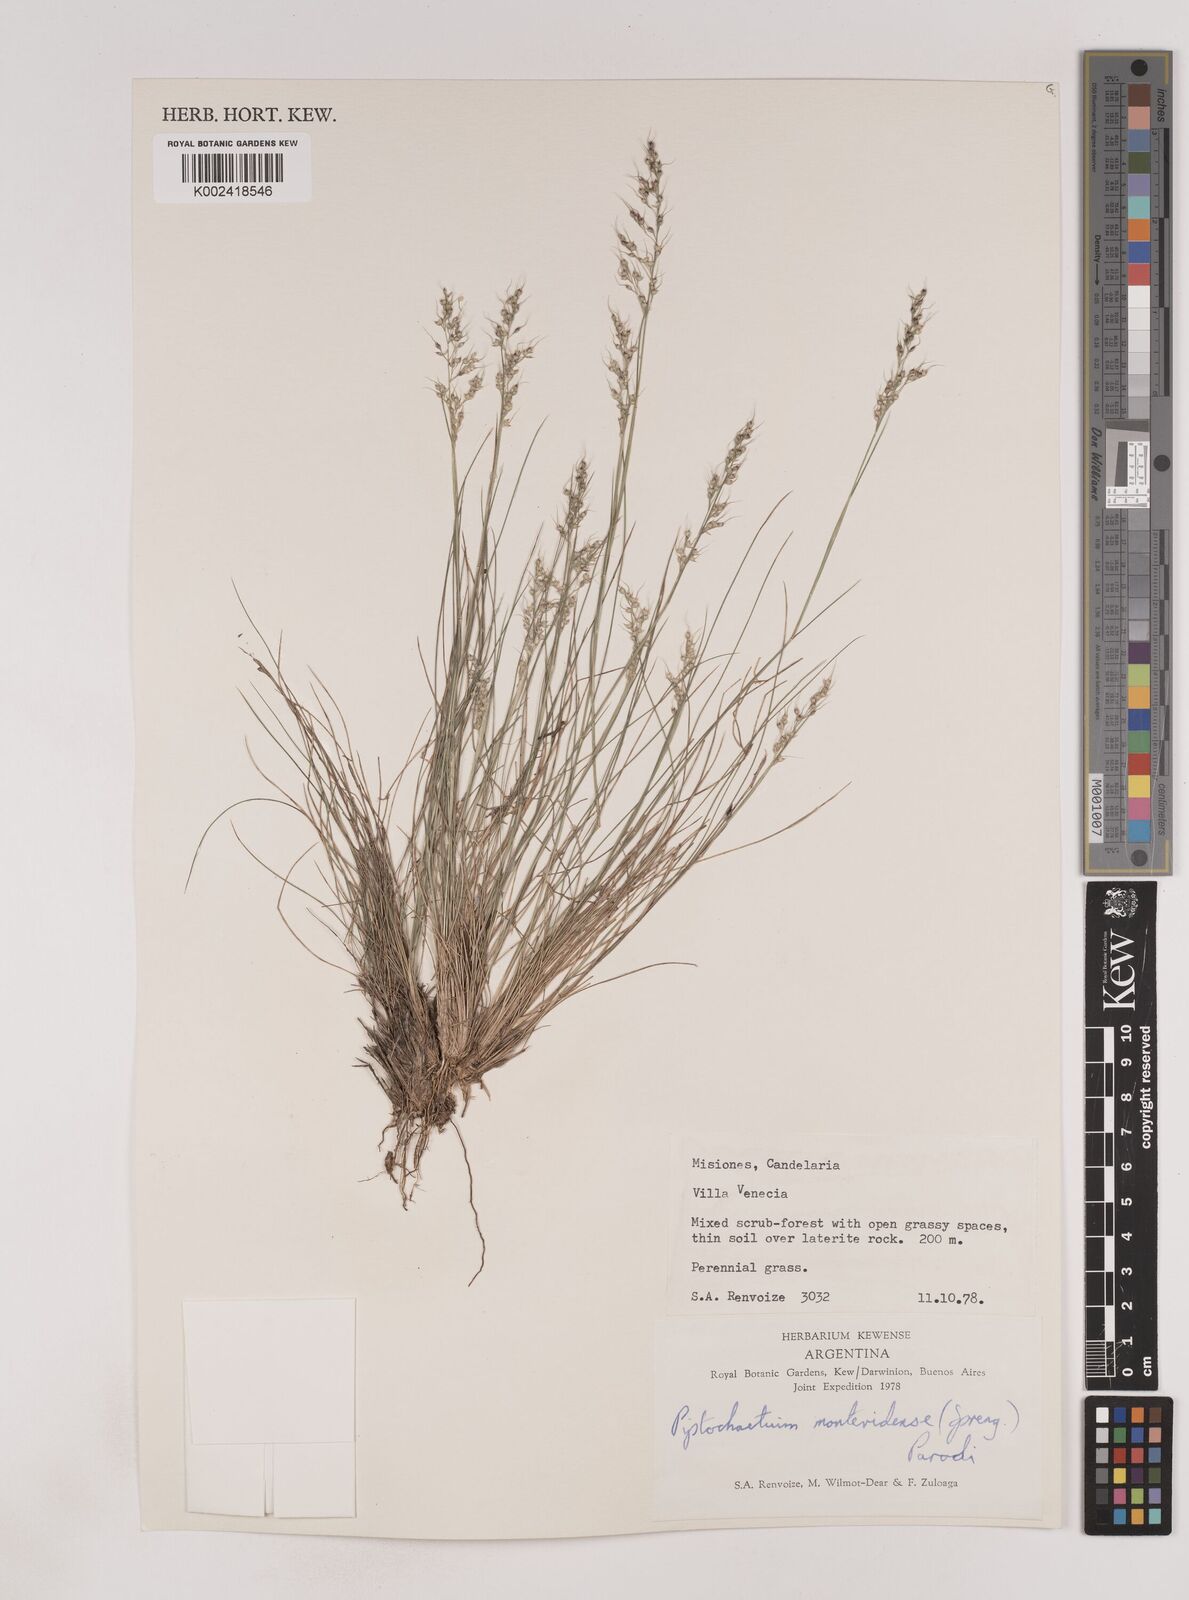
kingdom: Plantae
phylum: Tracheophyta
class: Liliopsida
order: Poales
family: Poaceae
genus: Piptochaetium
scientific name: Piptochaetium montevidense
